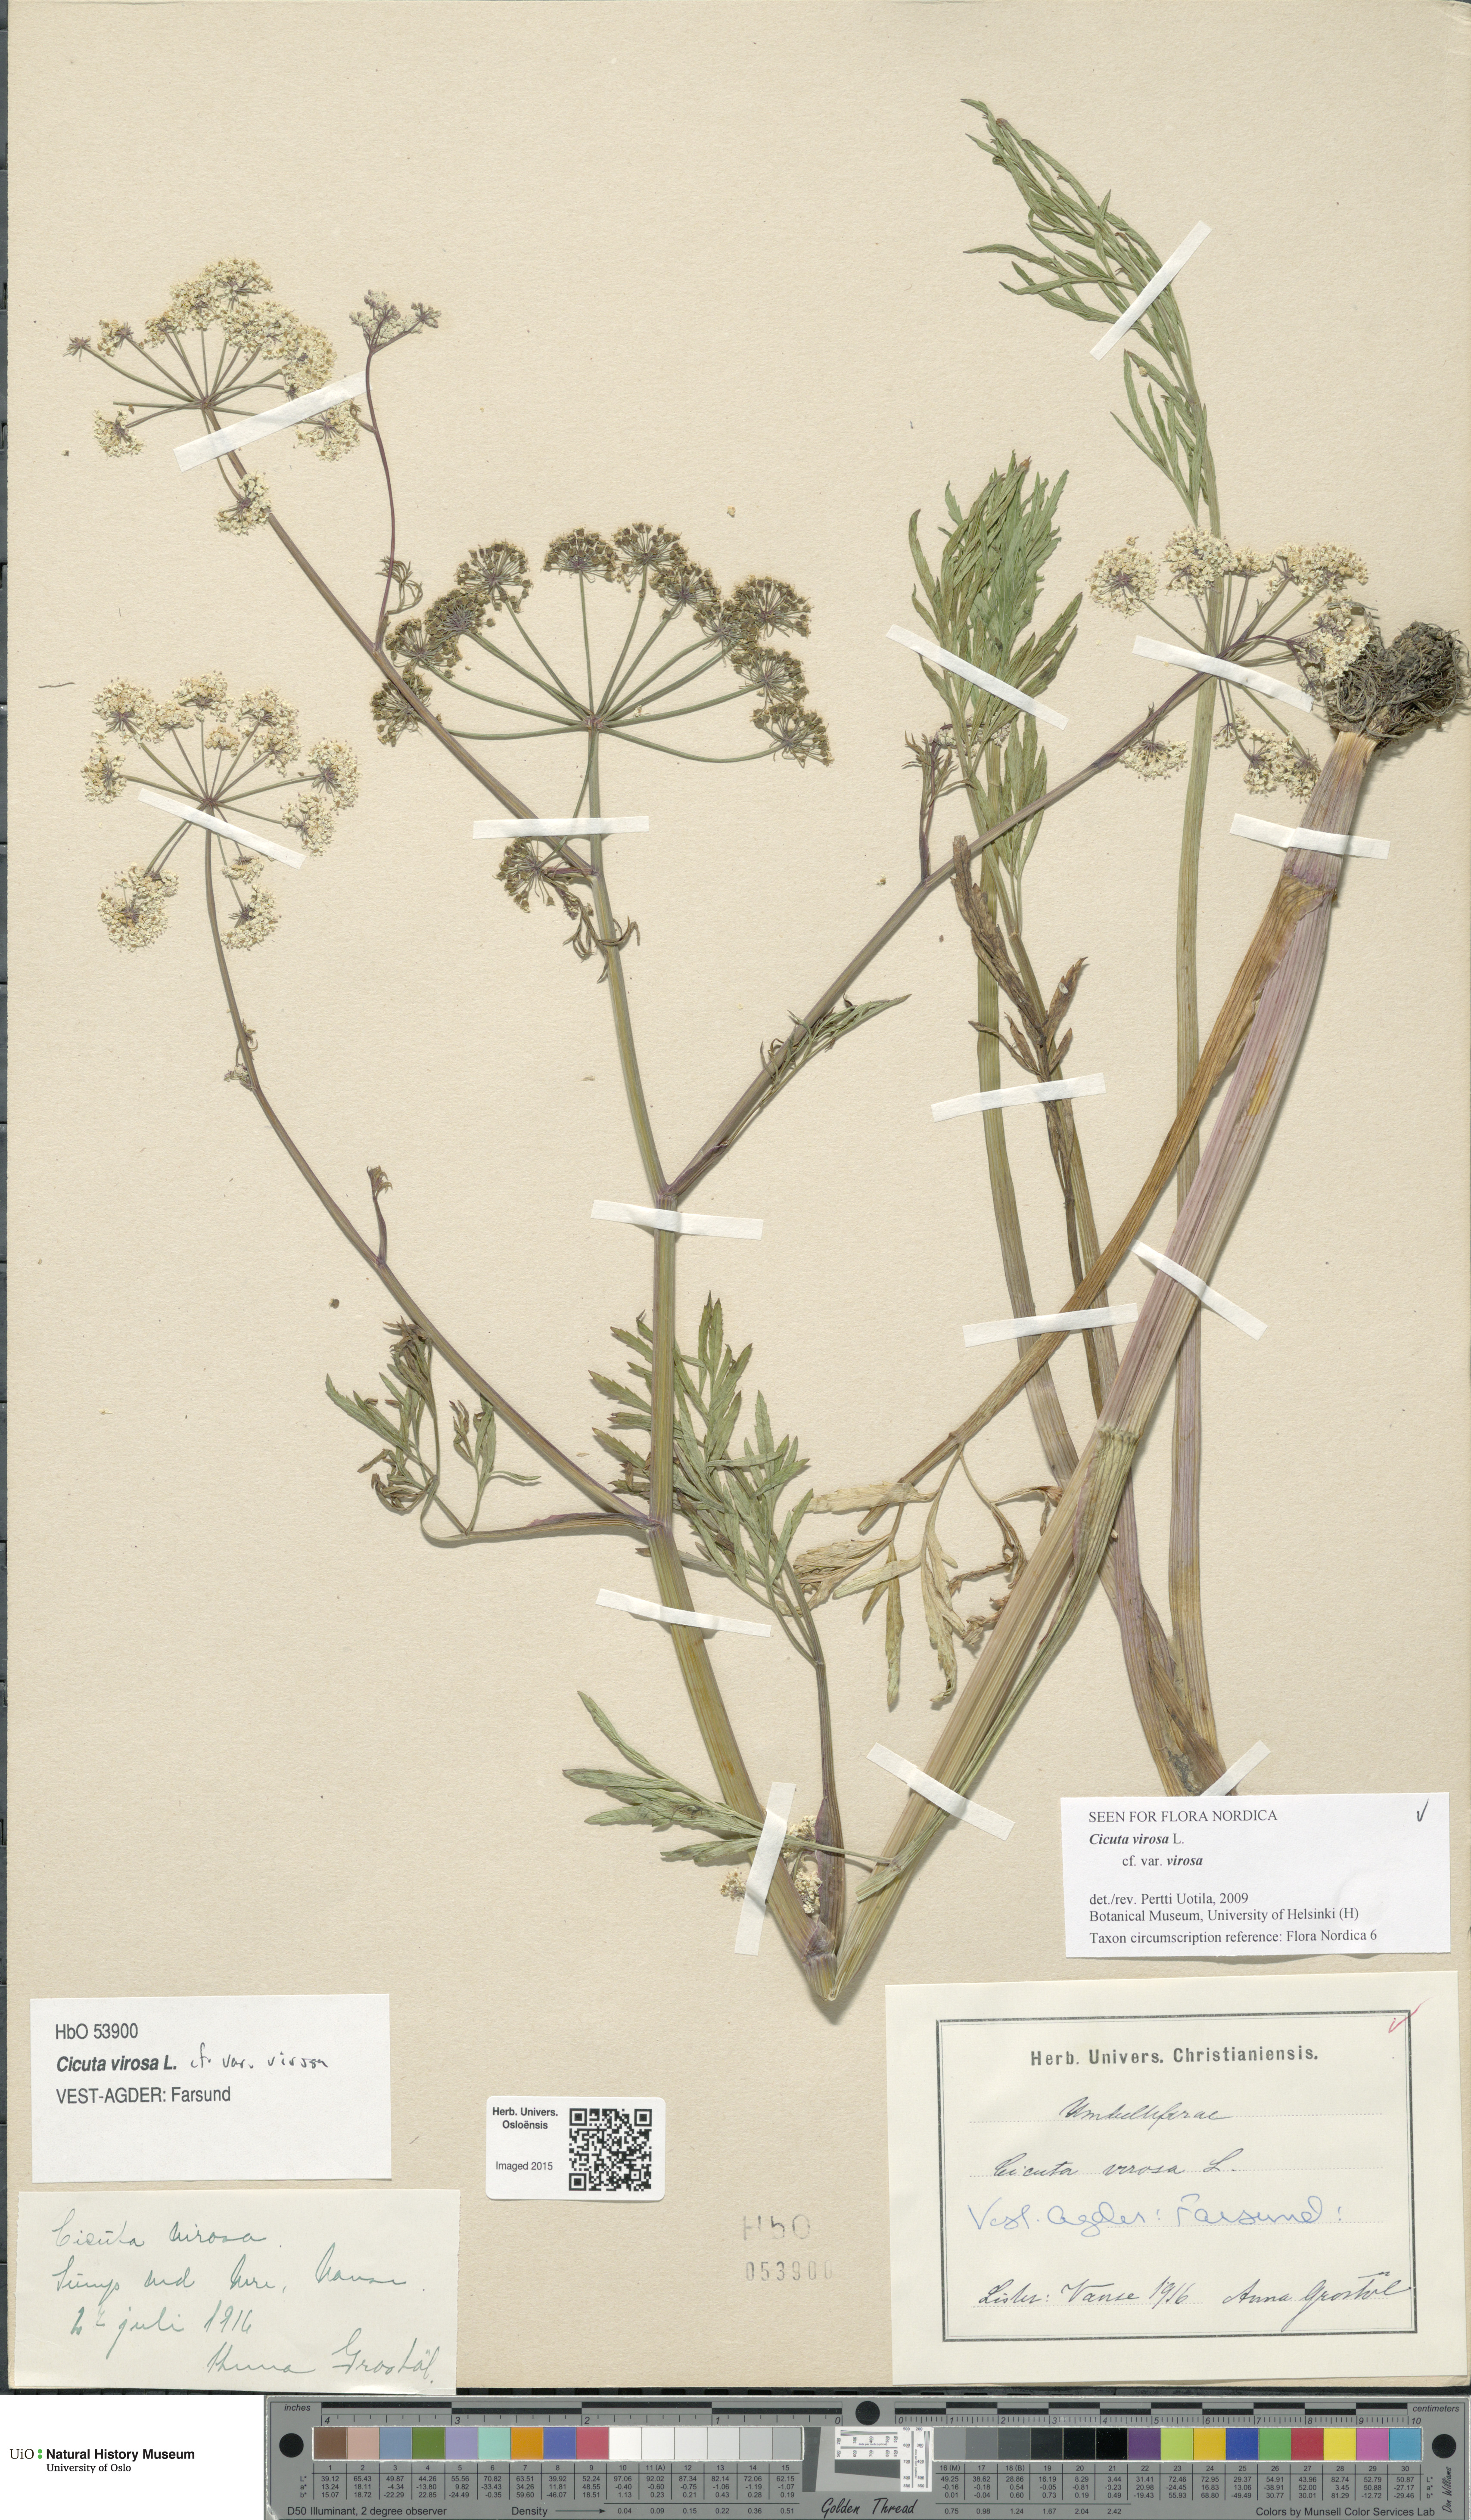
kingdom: Plantae
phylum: Tracheophyta
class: Magnoliopsida
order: Apiales
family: Apiaceae
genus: Cicuta
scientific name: Cicuta virosa
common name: Cowbane
